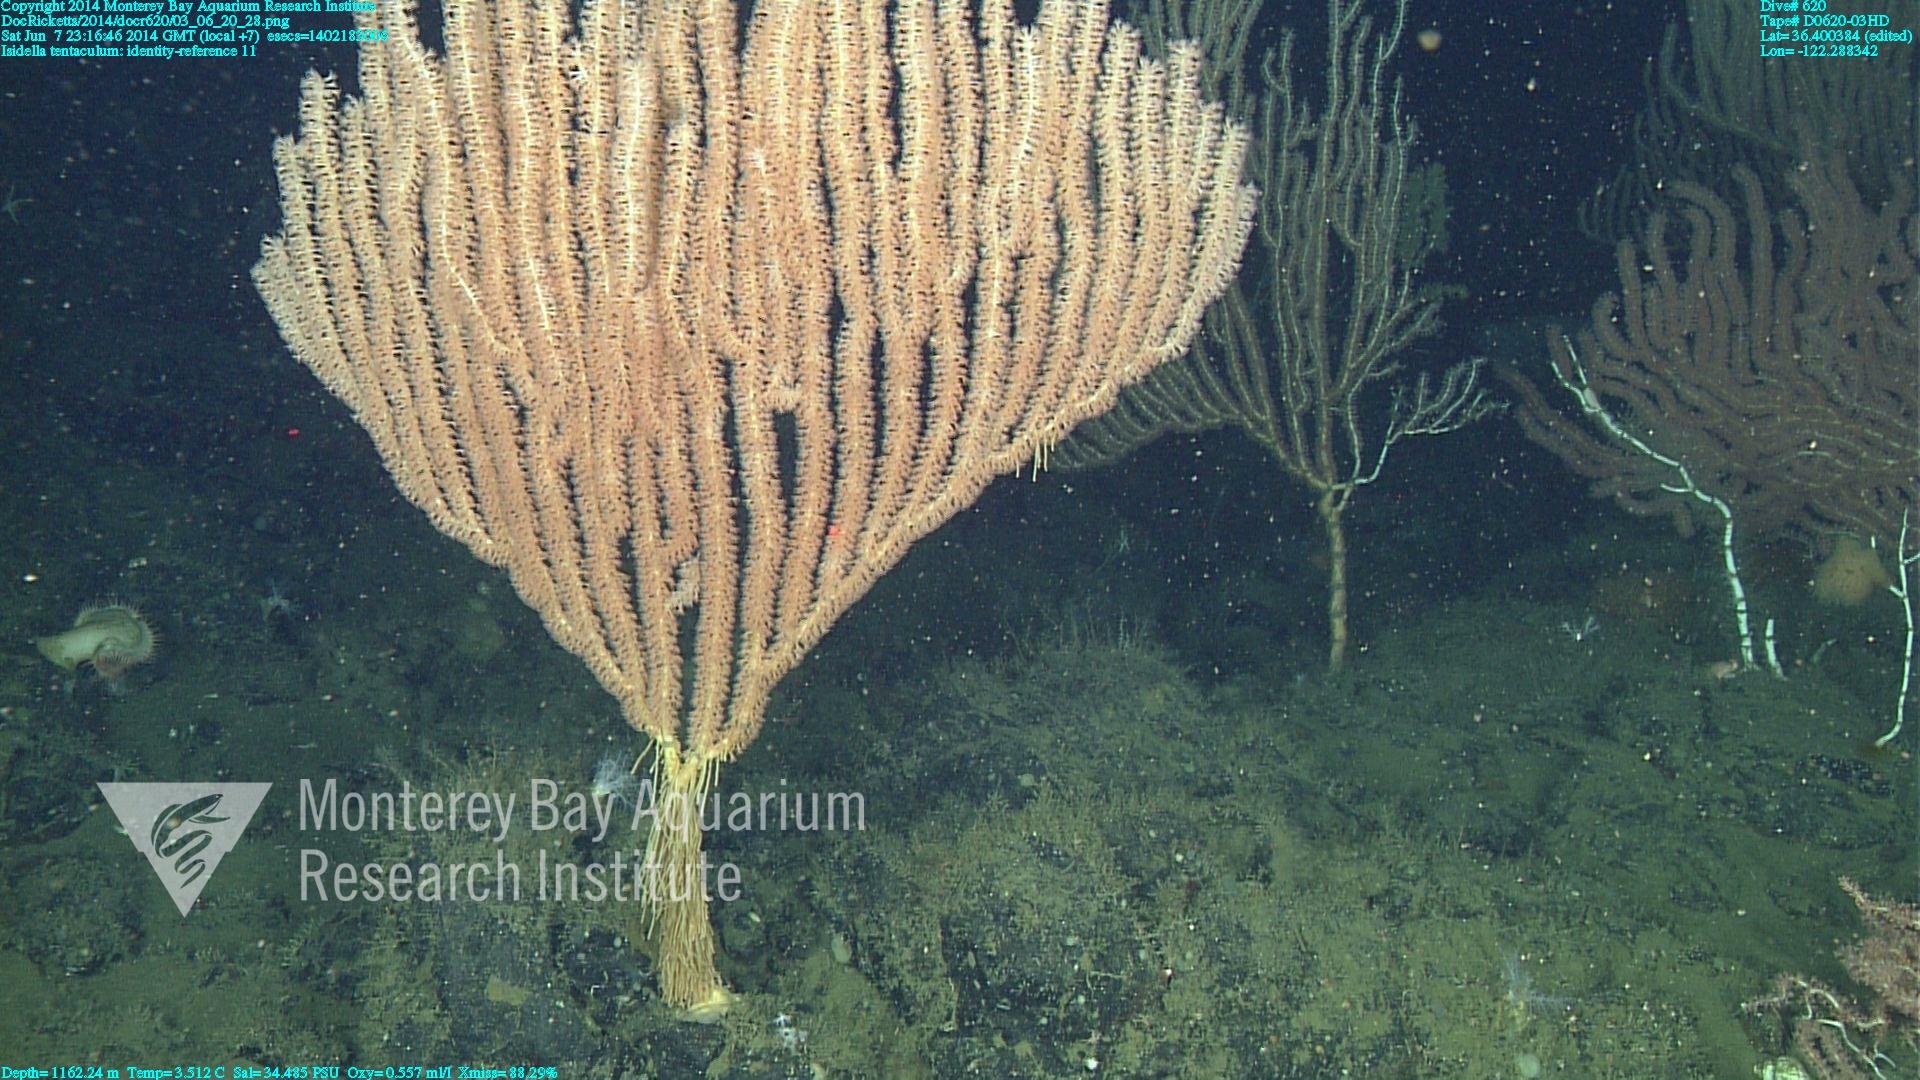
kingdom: Animalia
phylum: Cnidaria
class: Anthozoa
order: Scleralcyonacea
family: Keratoisididae
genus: Isidella
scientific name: Isidella tentaculum
